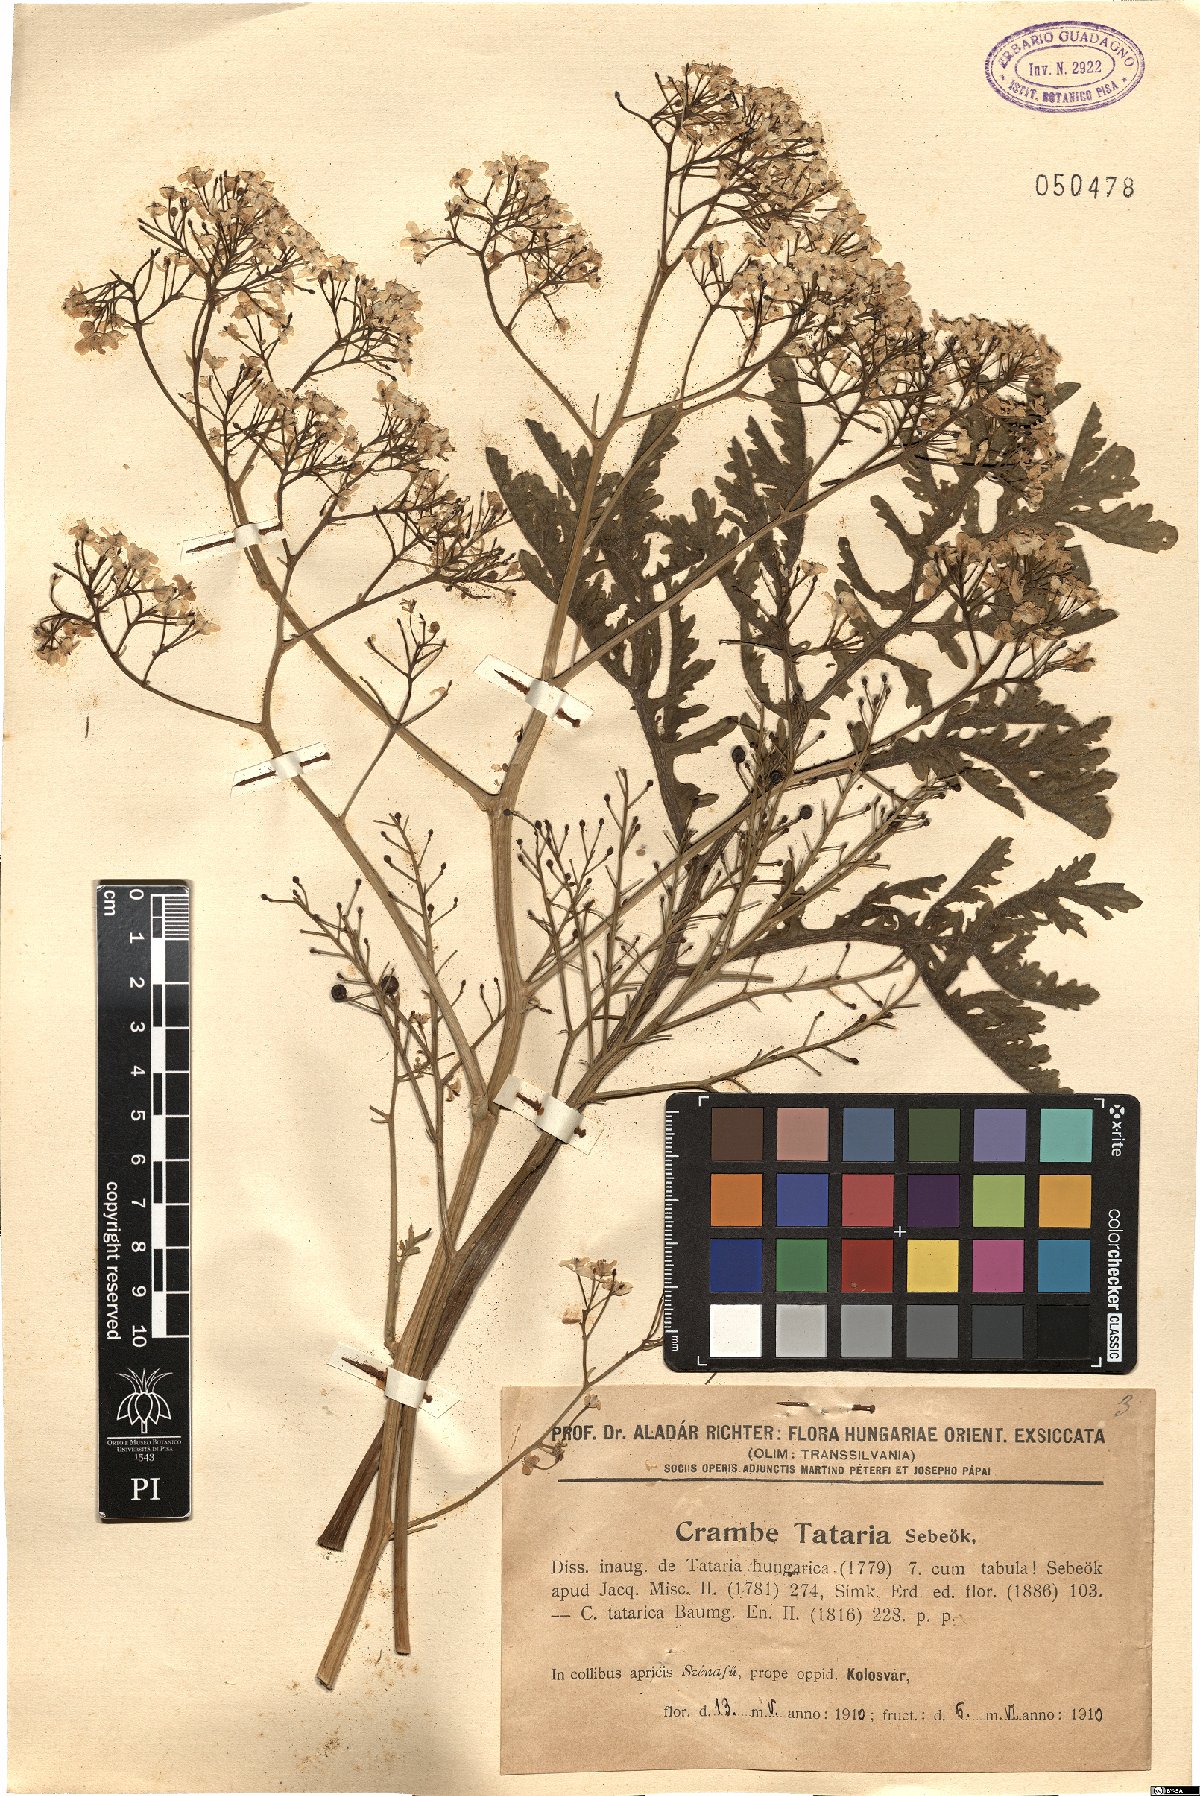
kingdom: Plantae
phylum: Tracheophyta
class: Magnoliopsida
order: Brassicales
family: Brassicaceae
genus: Crambe
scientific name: Crambe tataria
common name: Tartarian breadplant
